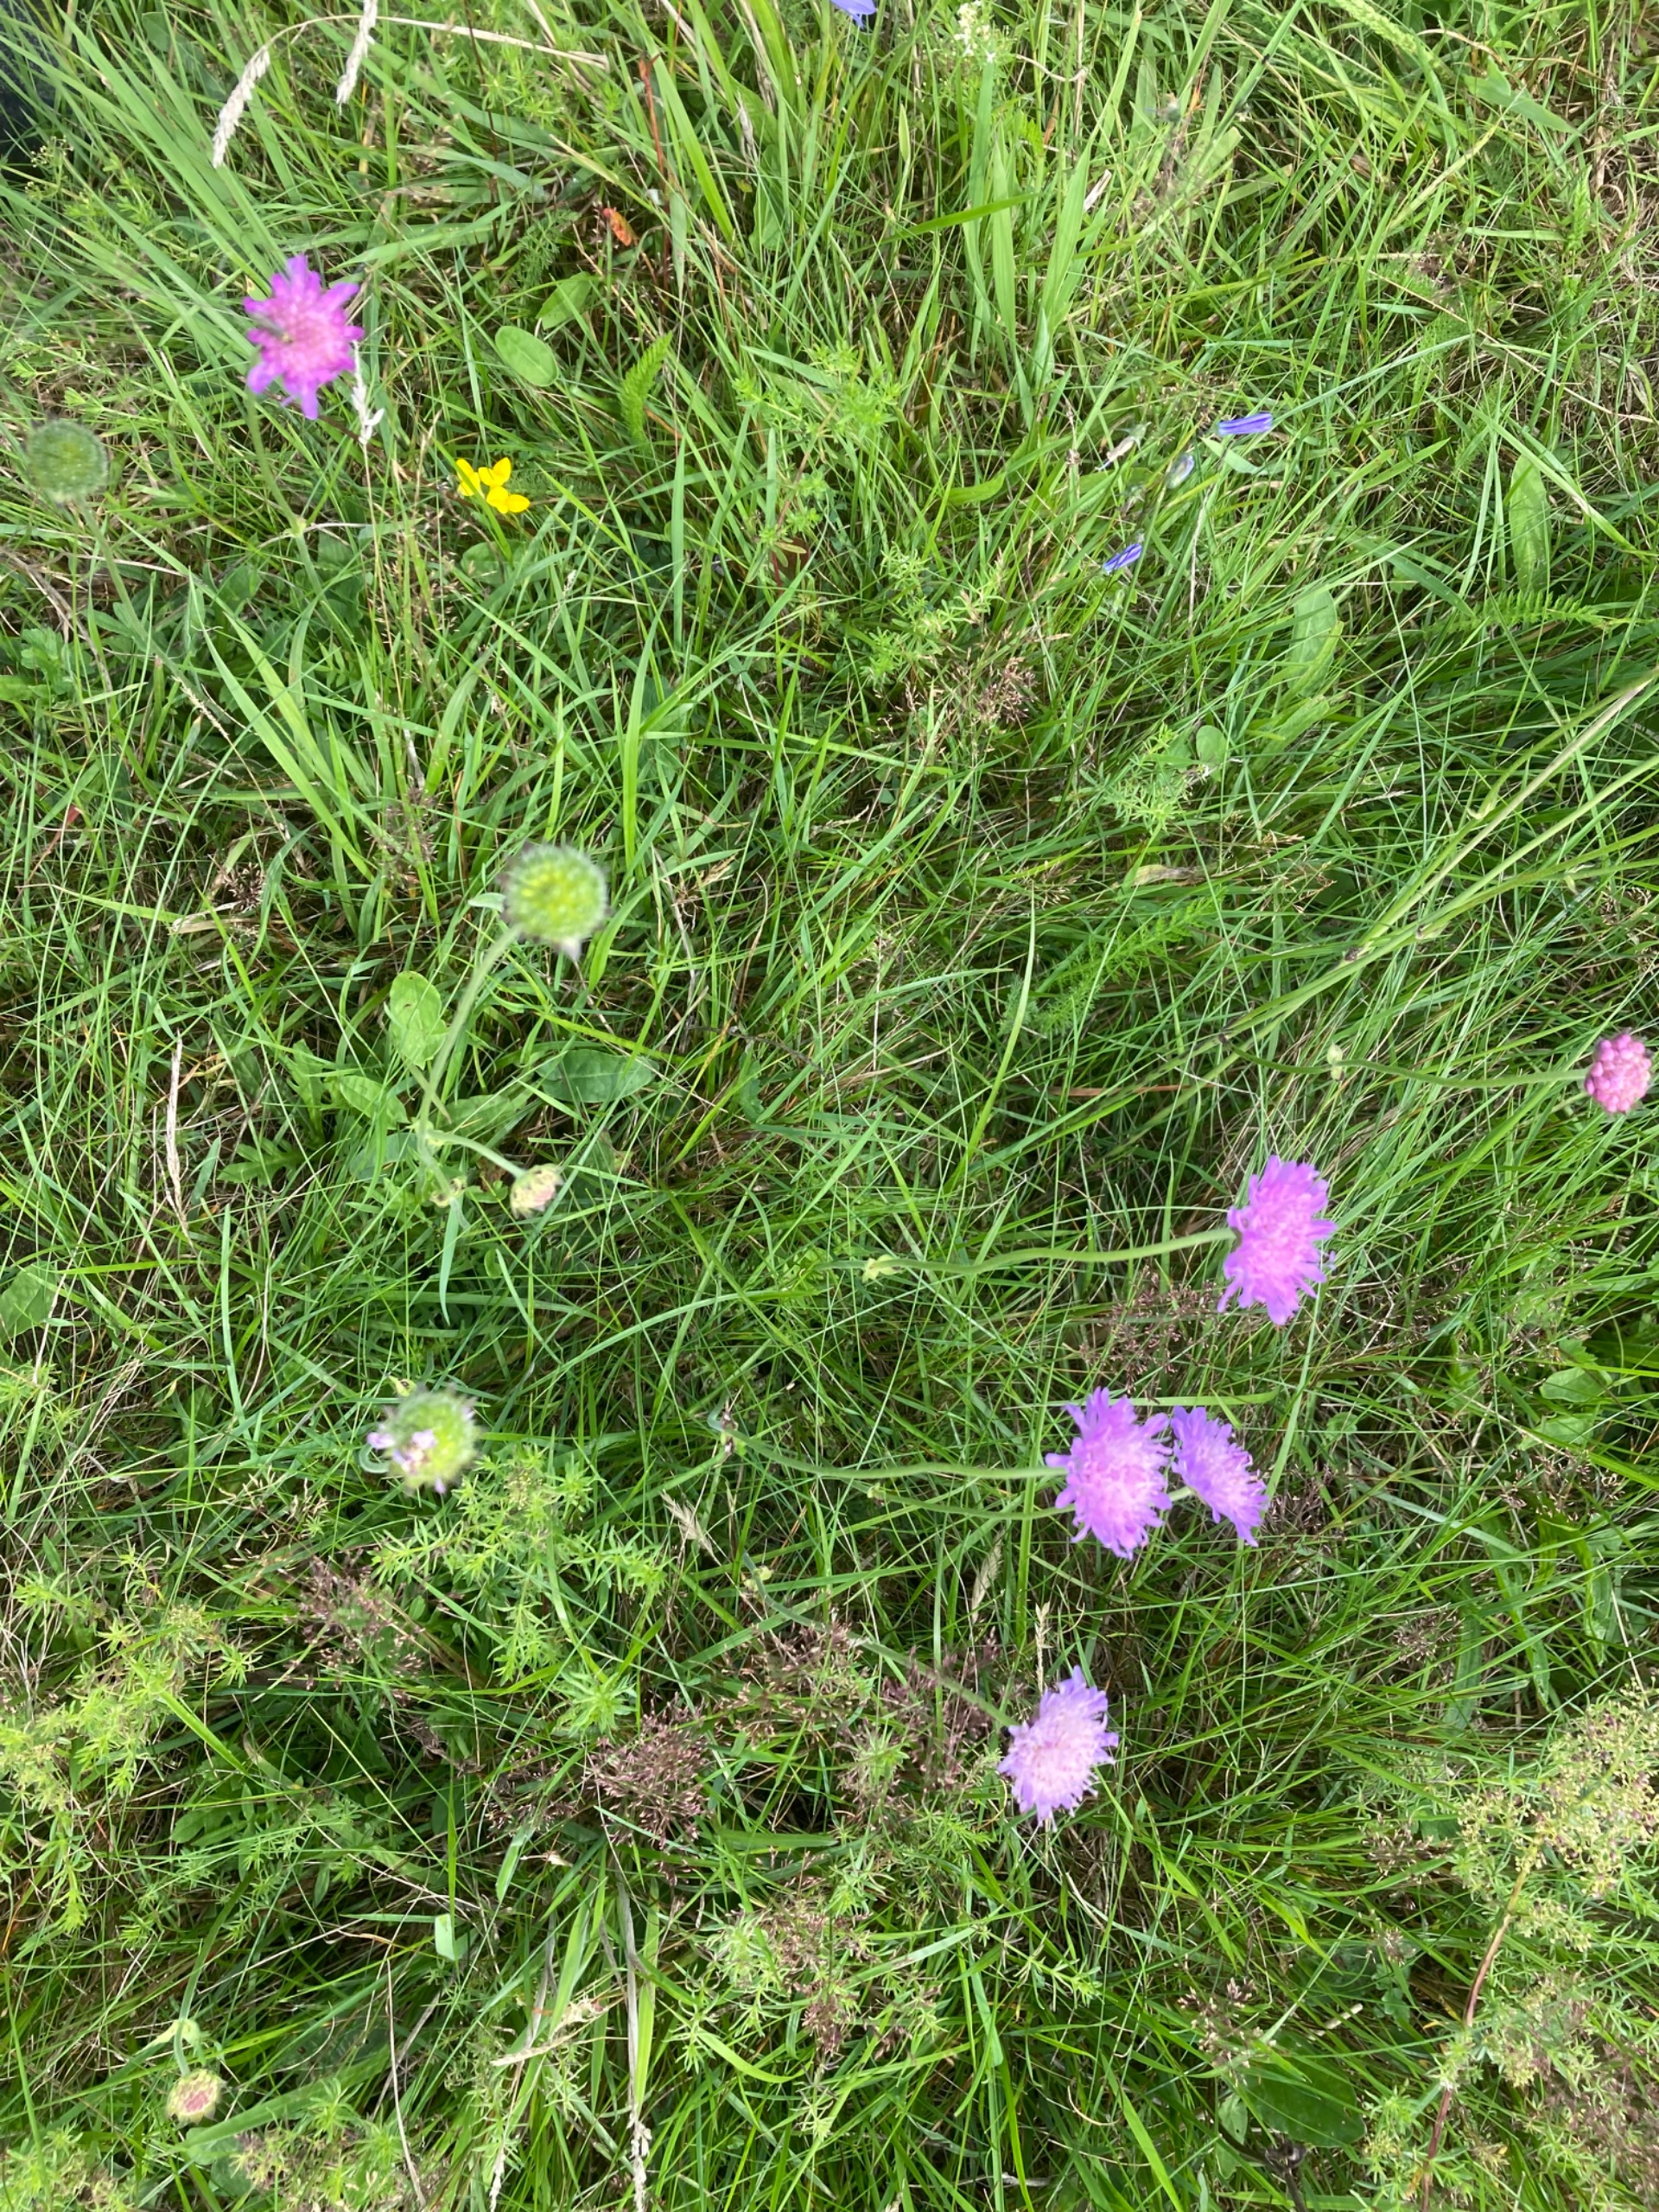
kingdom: Plantae
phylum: Tracheophyta
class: Magnoliopsida
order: Dipsacales
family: Caprifoliaceae
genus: Knautia
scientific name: Knautia arvensis
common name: Blåhat
